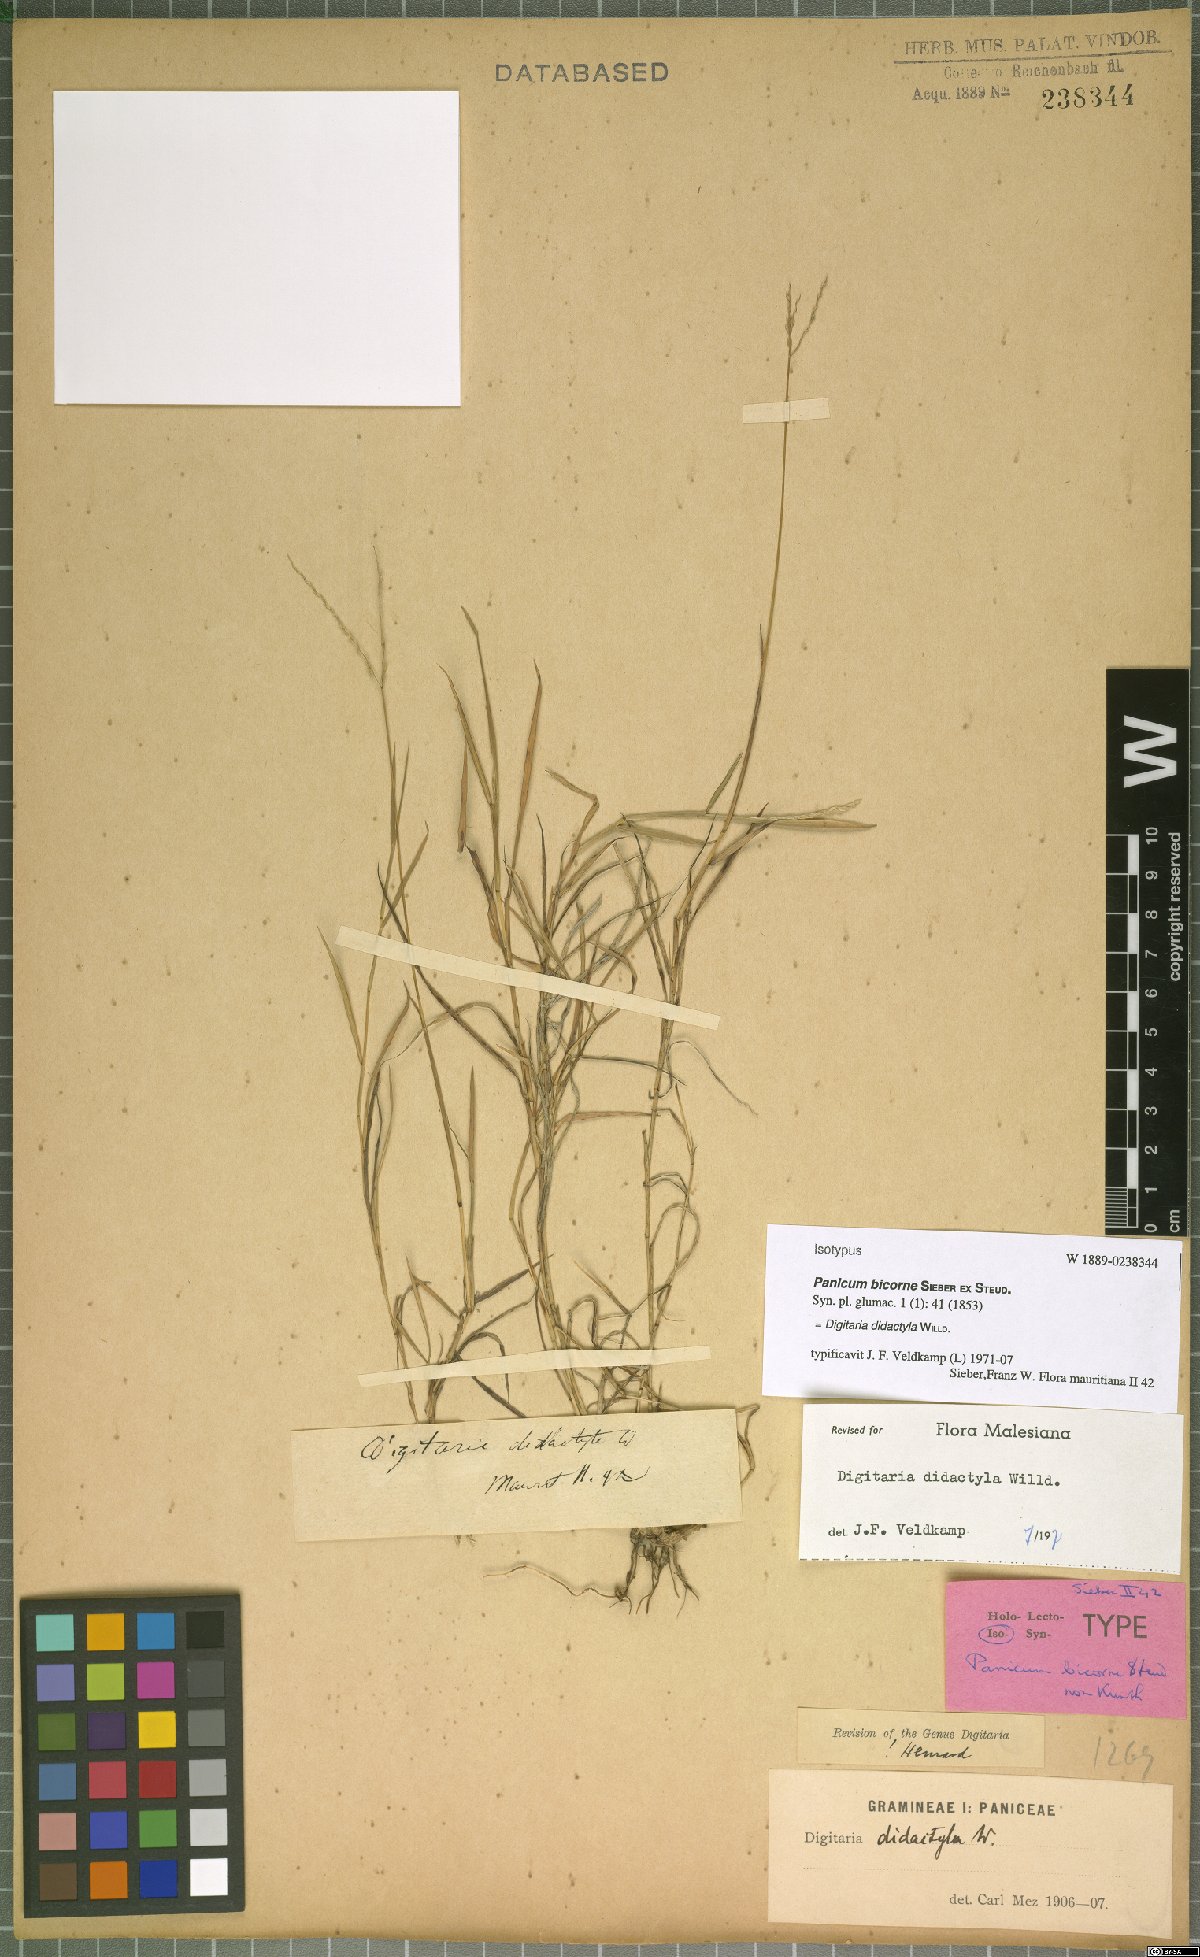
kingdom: Plantae
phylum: Tracheophyta
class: Liliopsida
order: Poales
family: Poaceae
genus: Digitaria
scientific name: Digitaria didactyla
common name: Blue couch
